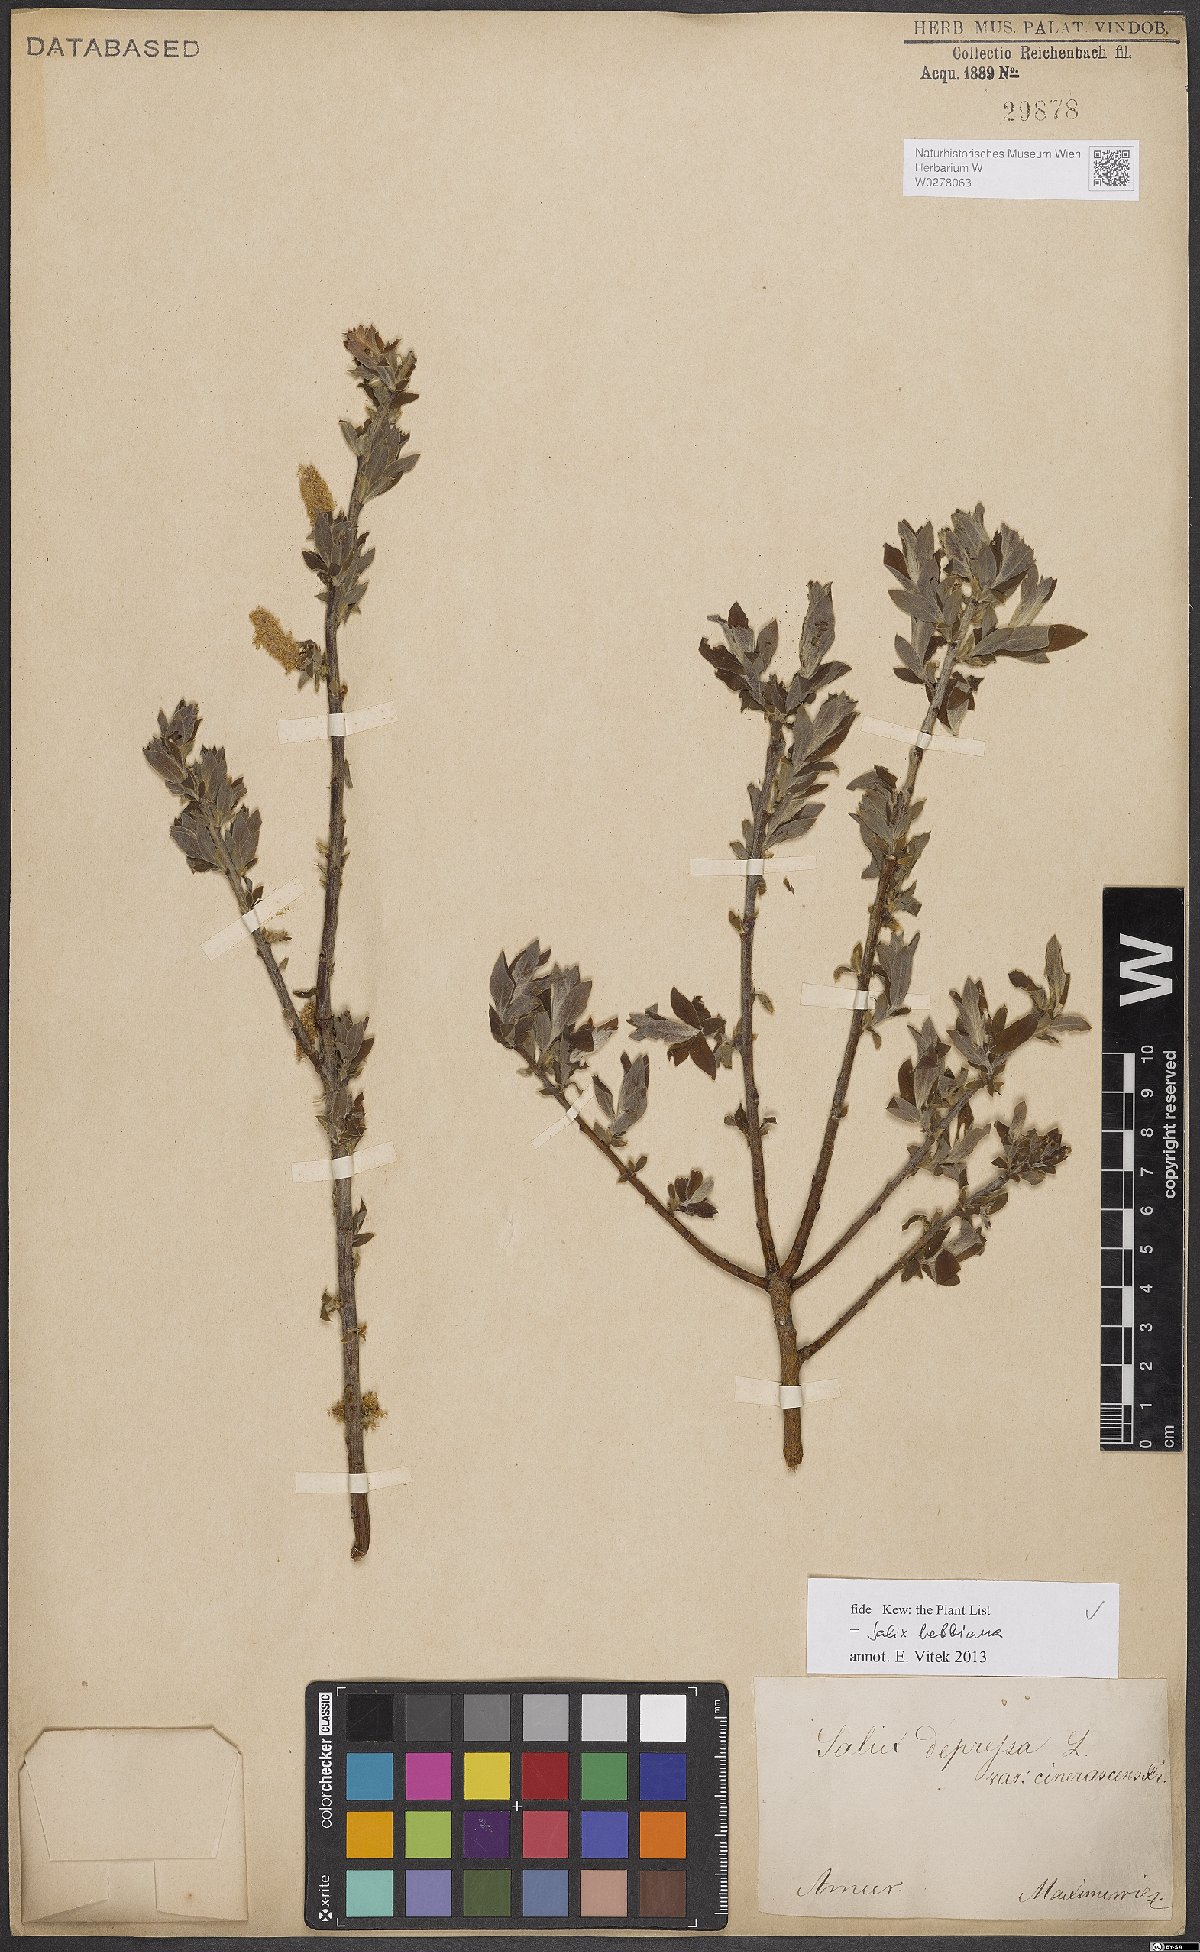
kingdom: Plantae
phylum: Tracheophyta
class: Magnoliopsida
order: Malpighiales
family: Salicaceae
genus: Salix
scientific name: Salix bebbiana
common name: Bebb's willow
